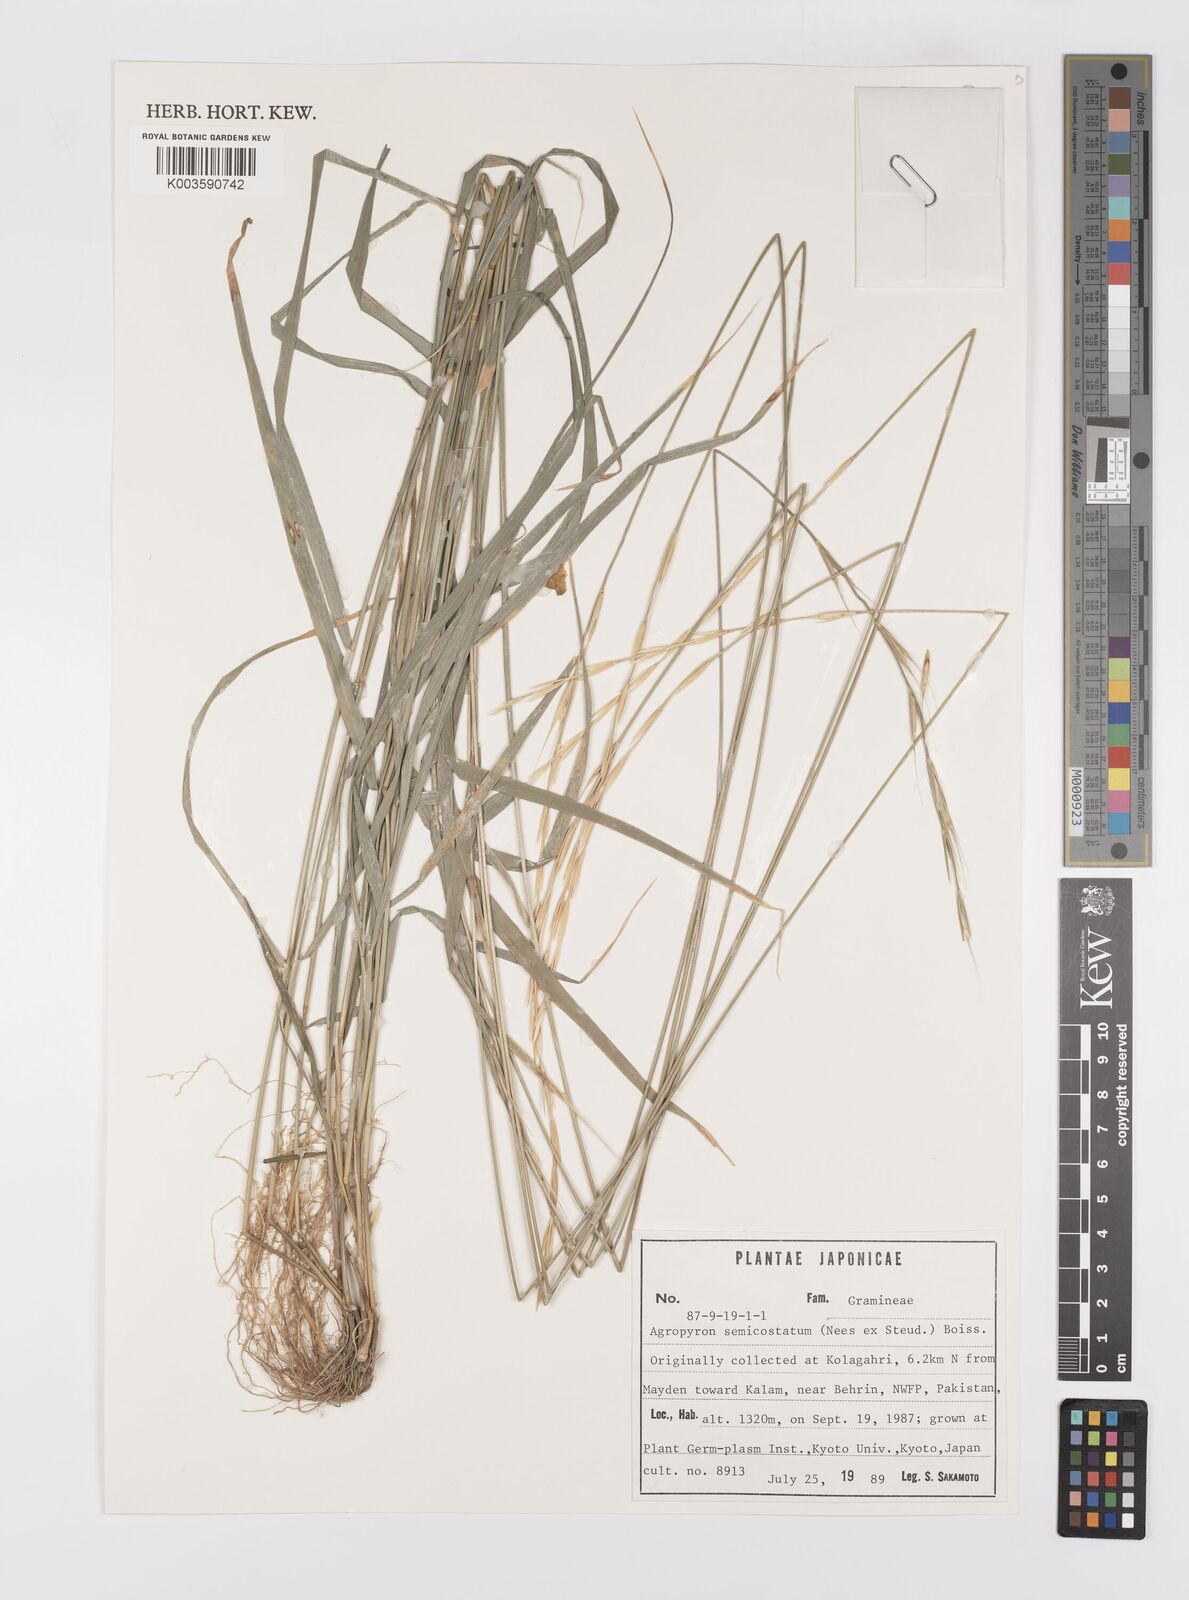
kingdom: Plantae
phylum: Tracheophyta
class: Liliopsida
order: Poales
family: Poaceae
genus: Elymus
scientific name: Elymus semicostatus
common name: Drooping wildrye
